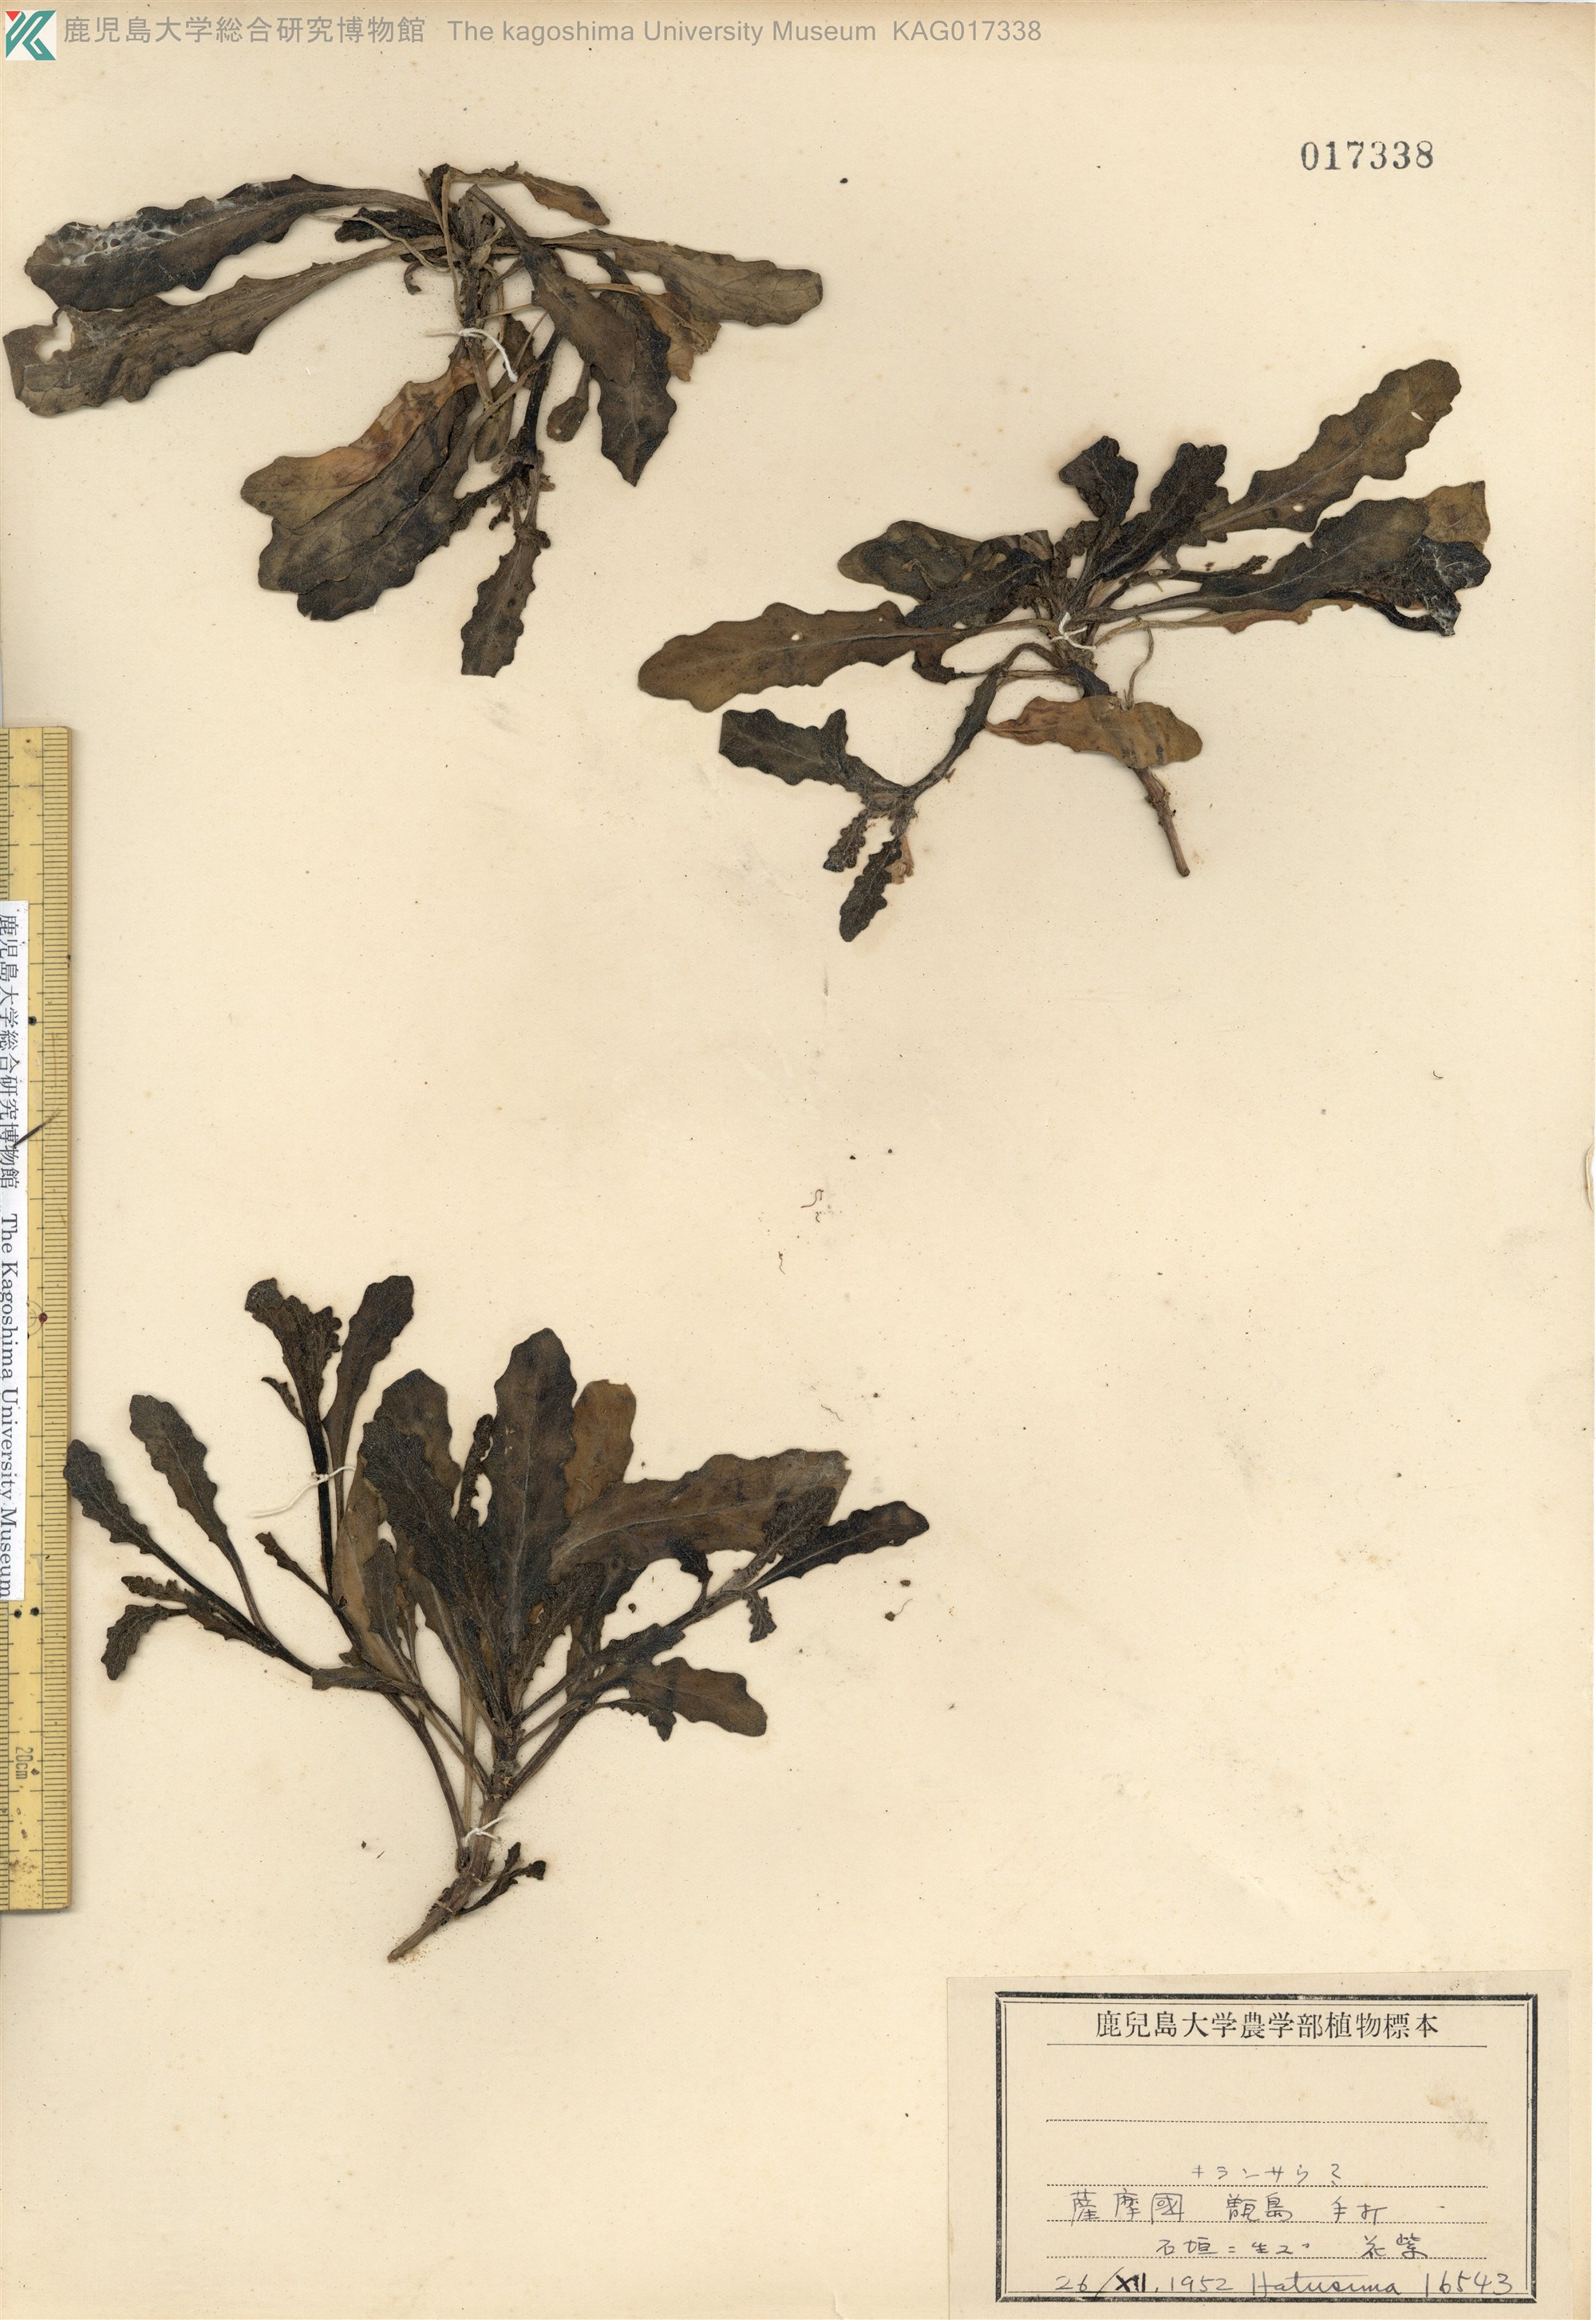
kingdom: Plantae
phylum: Tracheophyta
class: Magnoliopsida
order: Lamiales
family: Lamiaceae
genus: Ajuga
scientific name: Ajuga pygmaea
